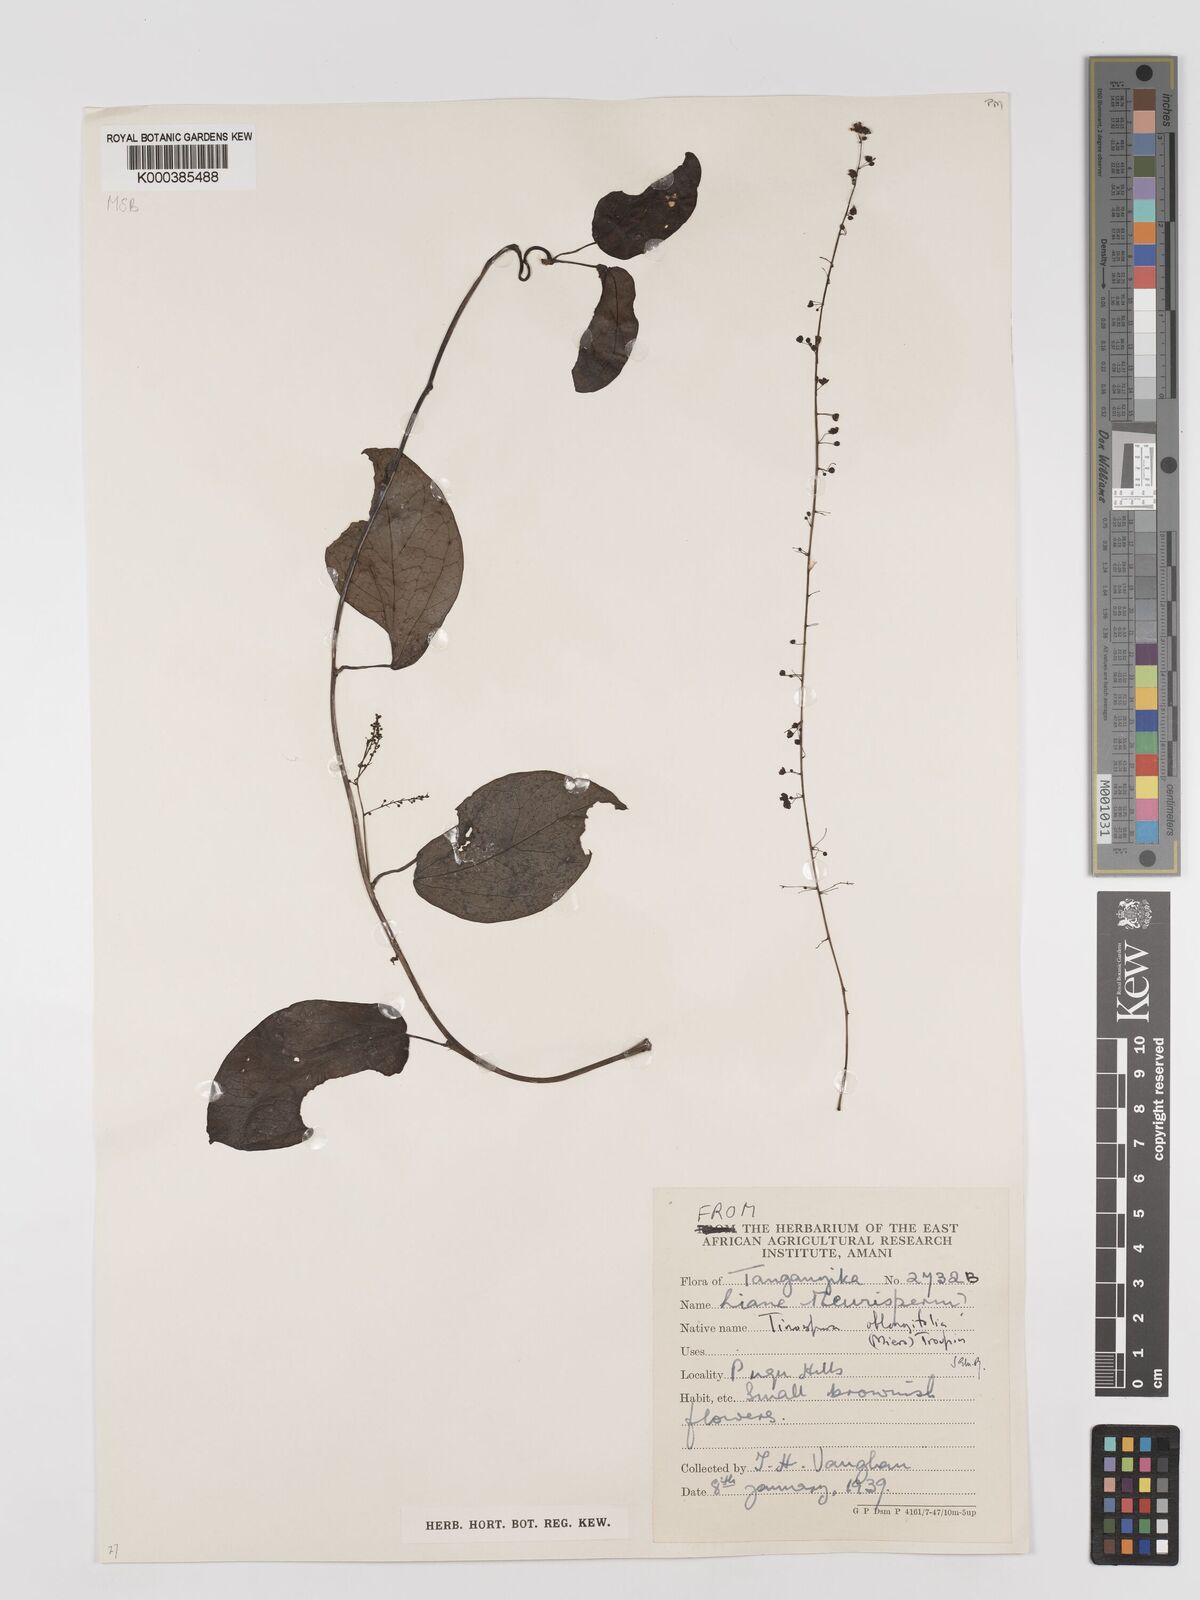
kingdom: Plantae
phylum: Tracheophyta
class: Magnoliopsida
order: Ranunculales
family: Menispermaceae
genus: Tinospora
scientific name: Tinospora oblongifolia
